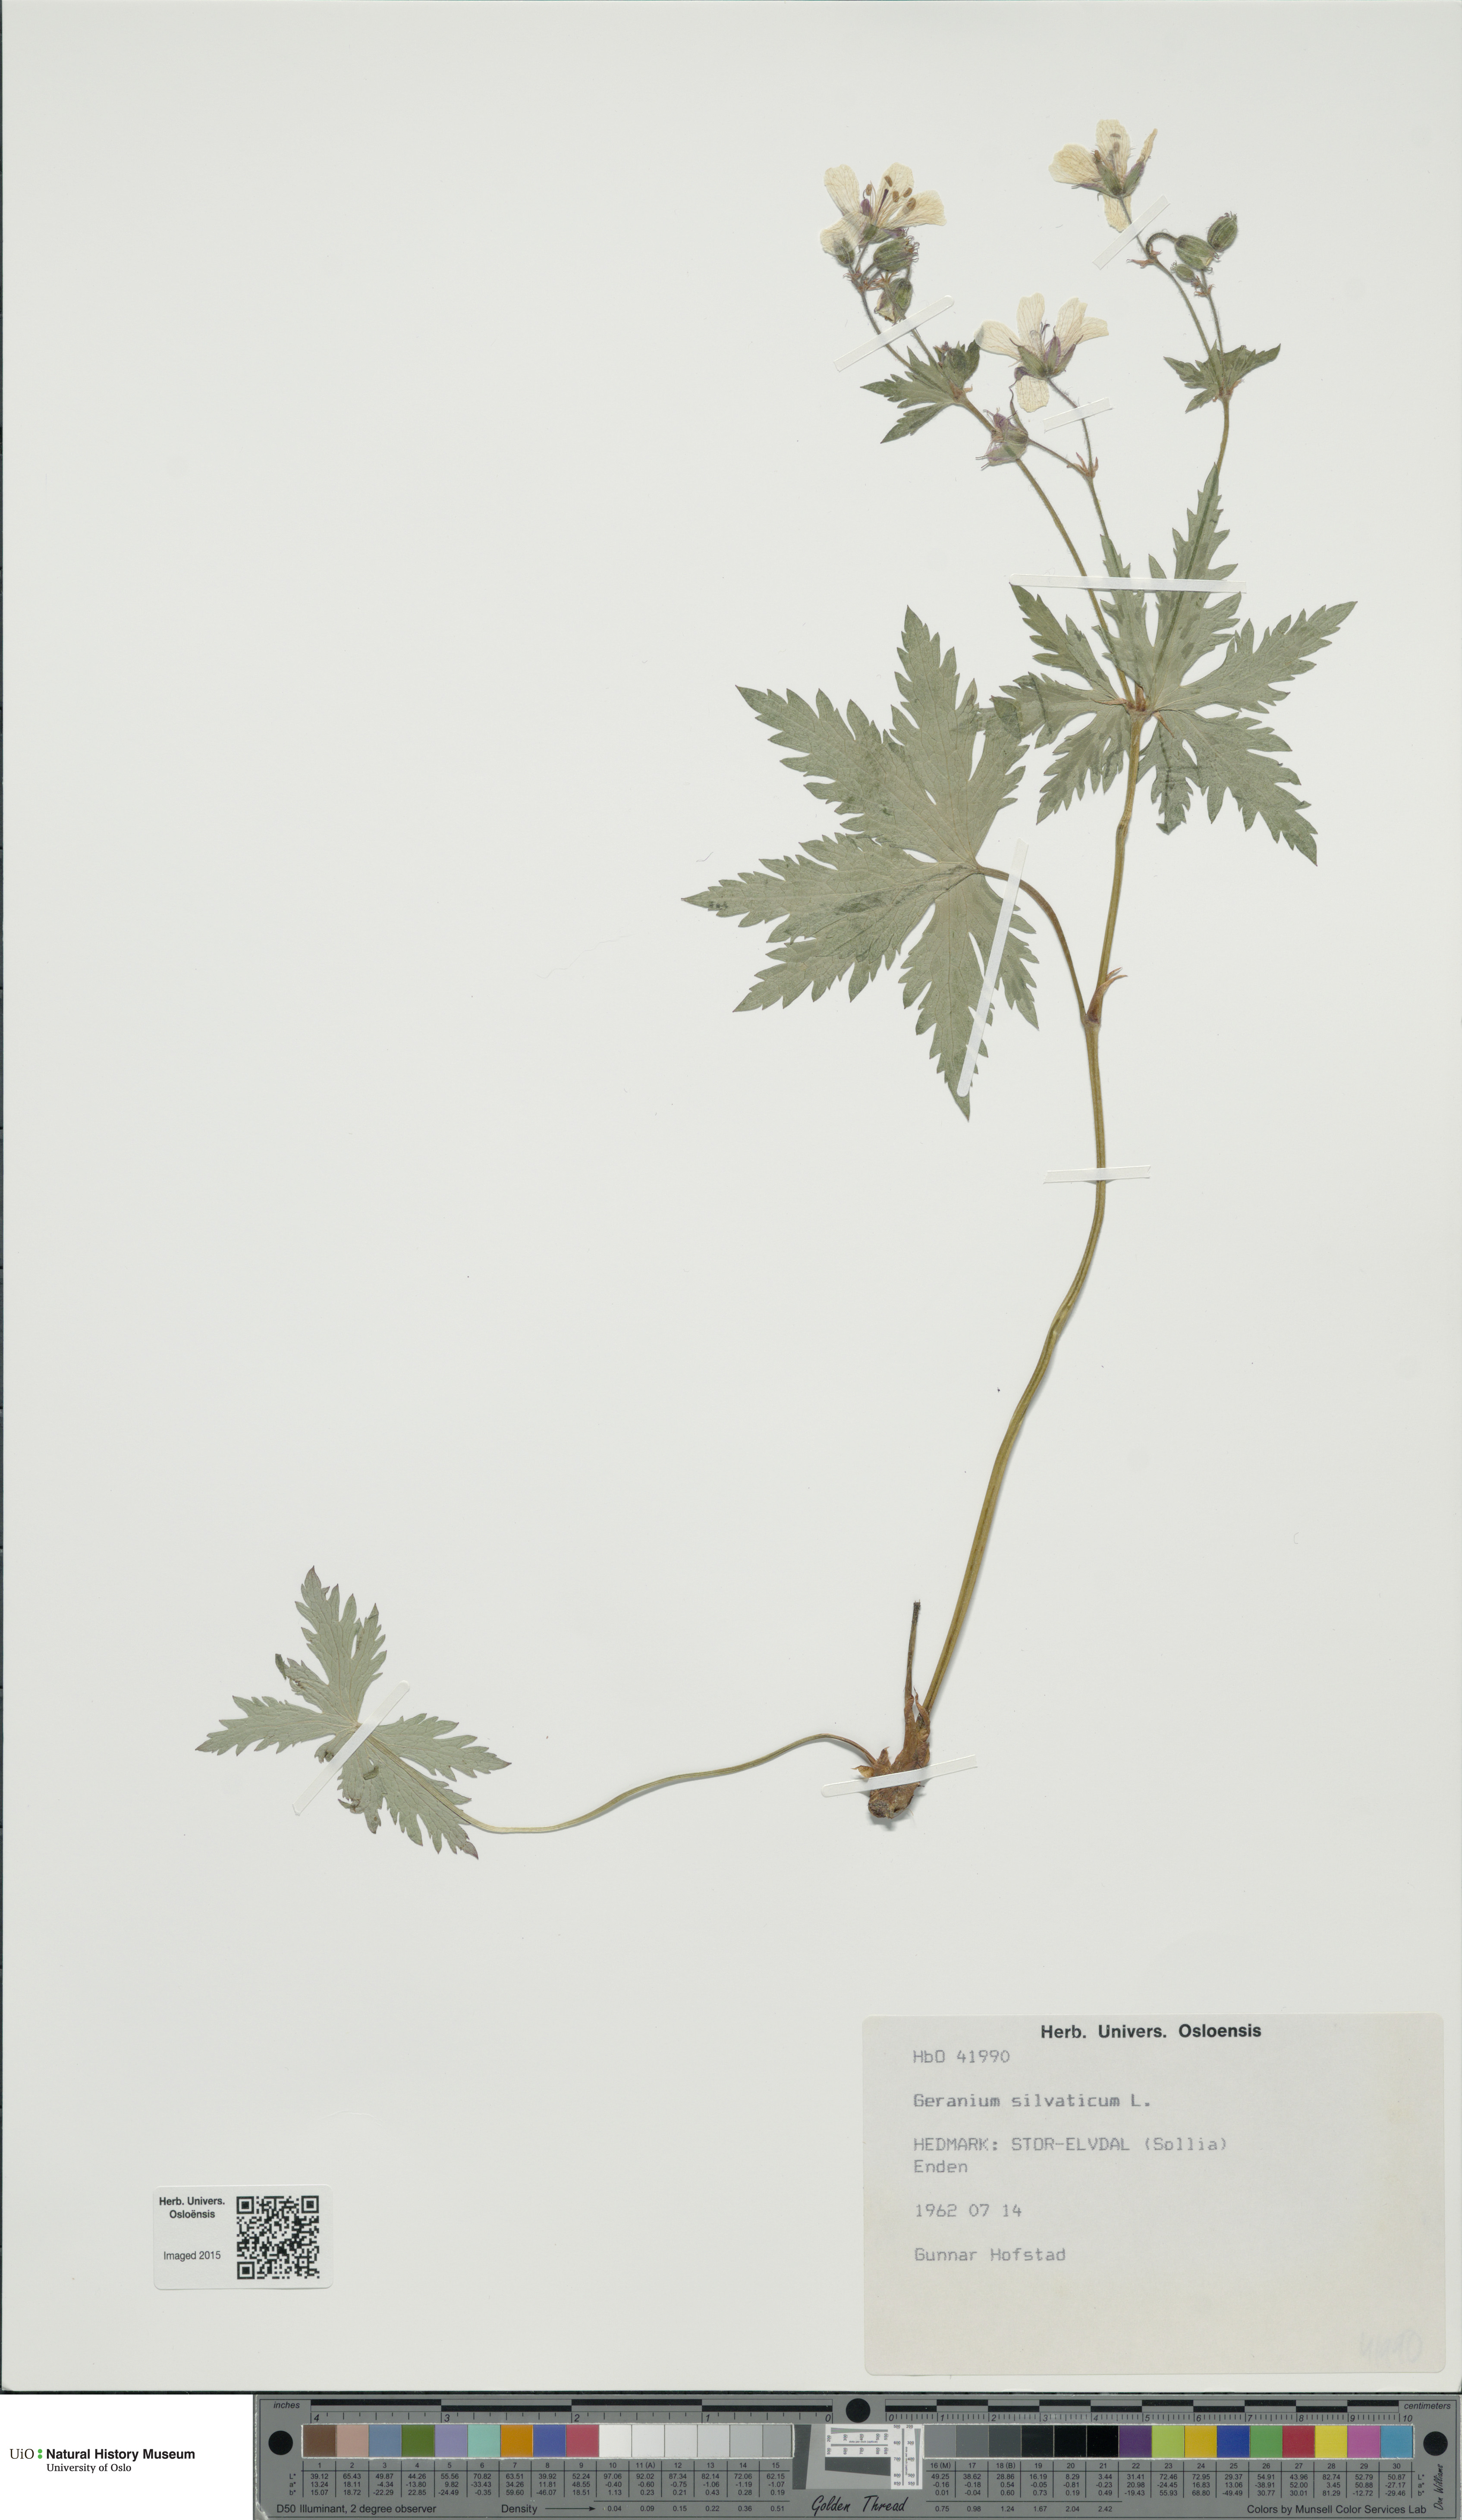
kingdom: Plantae
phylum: Tracheophyta
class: Magnoliopsida
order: Geraniales
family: Geraniaceae
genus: Geranium
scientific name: Geranium sylvaticum
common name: Wood crane's-bill
